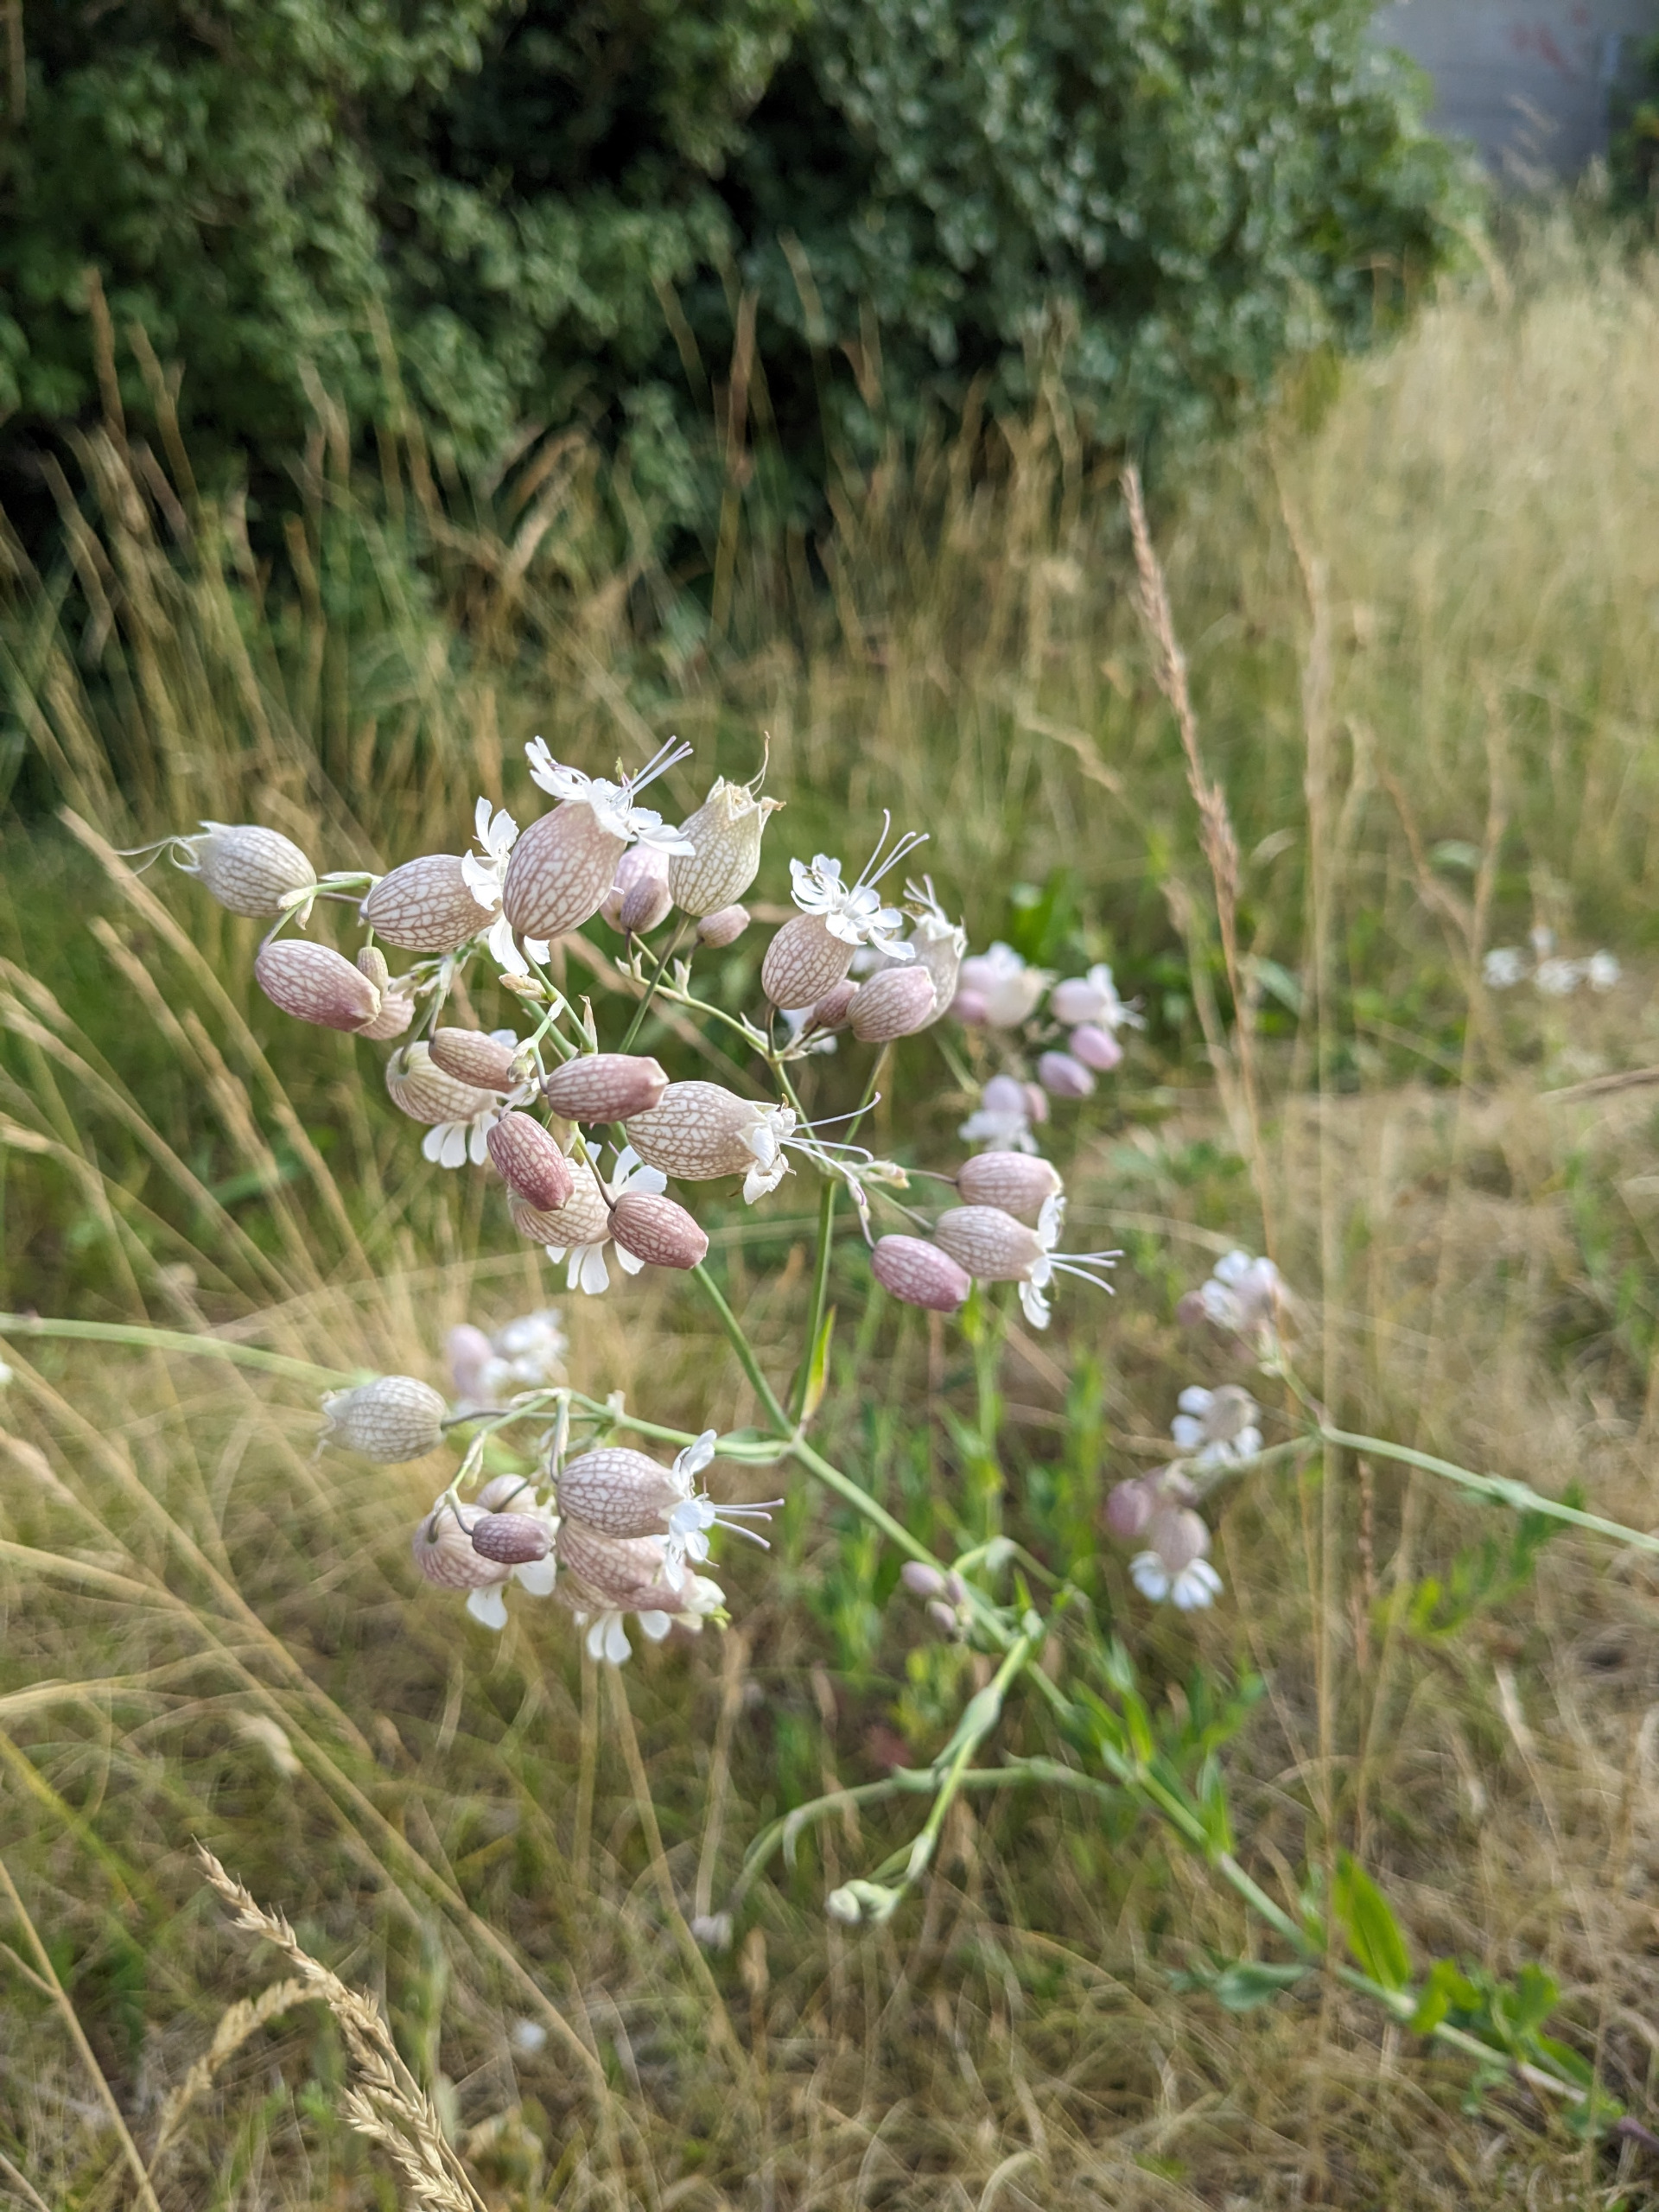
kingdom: Plantae
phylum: Tracheophyta
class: Magnoliopsida
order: Caryophyllales
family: Caryophyllaceae
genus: Silene
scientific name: Silene vulgaris
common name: Blæresmælde
